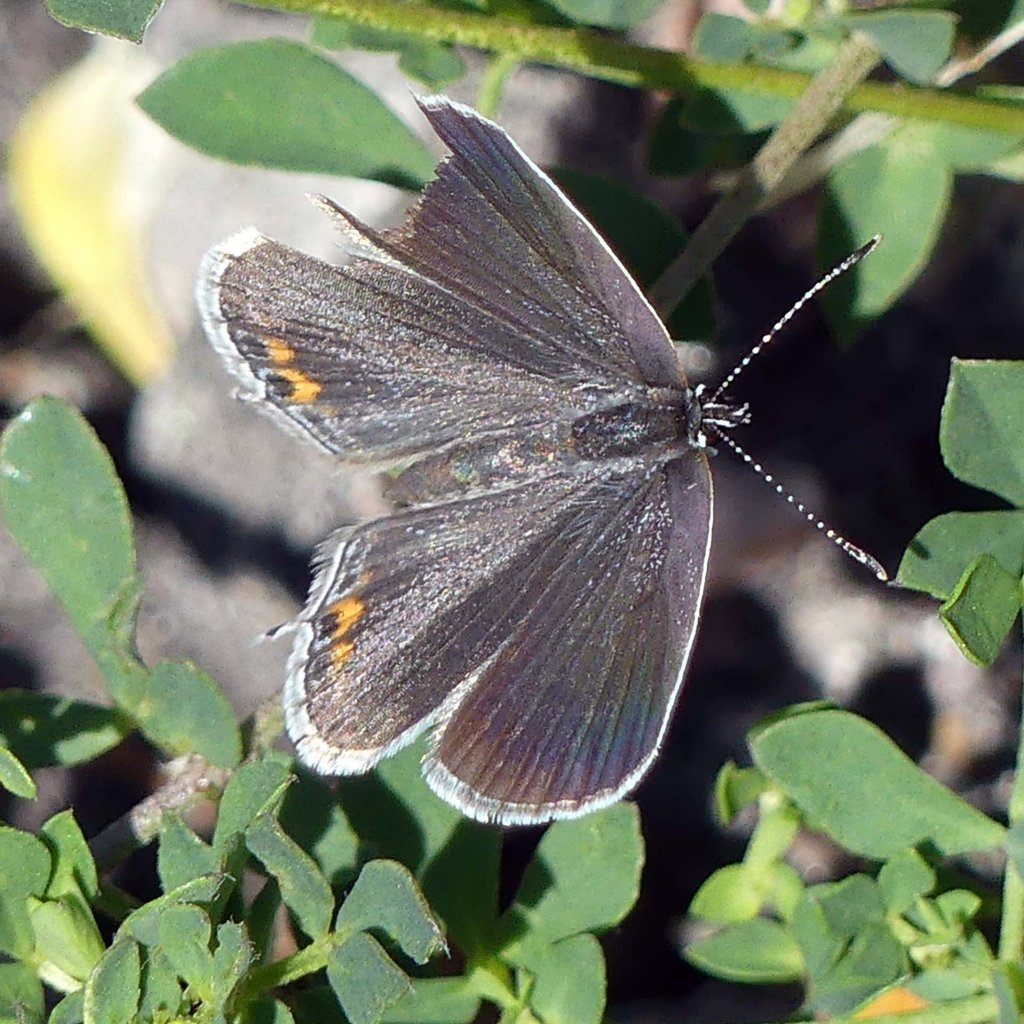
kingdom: Animalia
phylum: Arthropoda
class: Insecta
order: Lepidoptera
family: Lycaenidae
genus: Elkalyce
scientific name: Elkalyce comyntas
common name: Eastern Tailed-Blue
